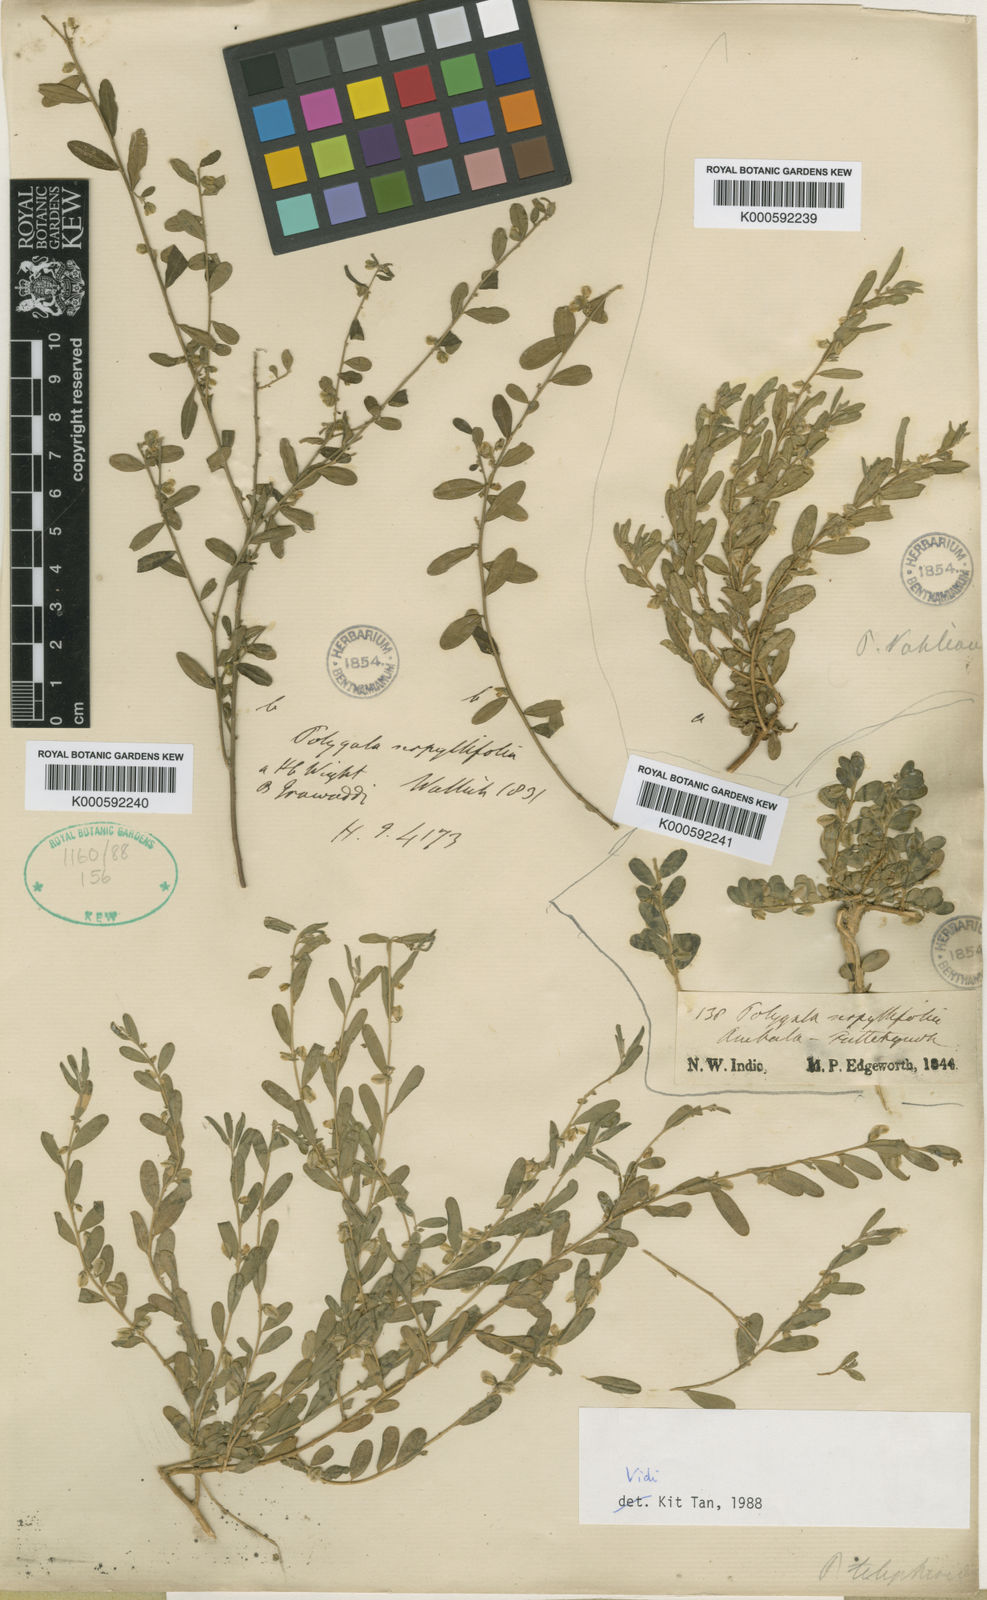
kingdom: Plantae
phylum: Tracheophyta
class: Magnoliopsida
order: Fabales
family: Polygalaceae
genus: Polygala
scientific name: Polygala telephioides
